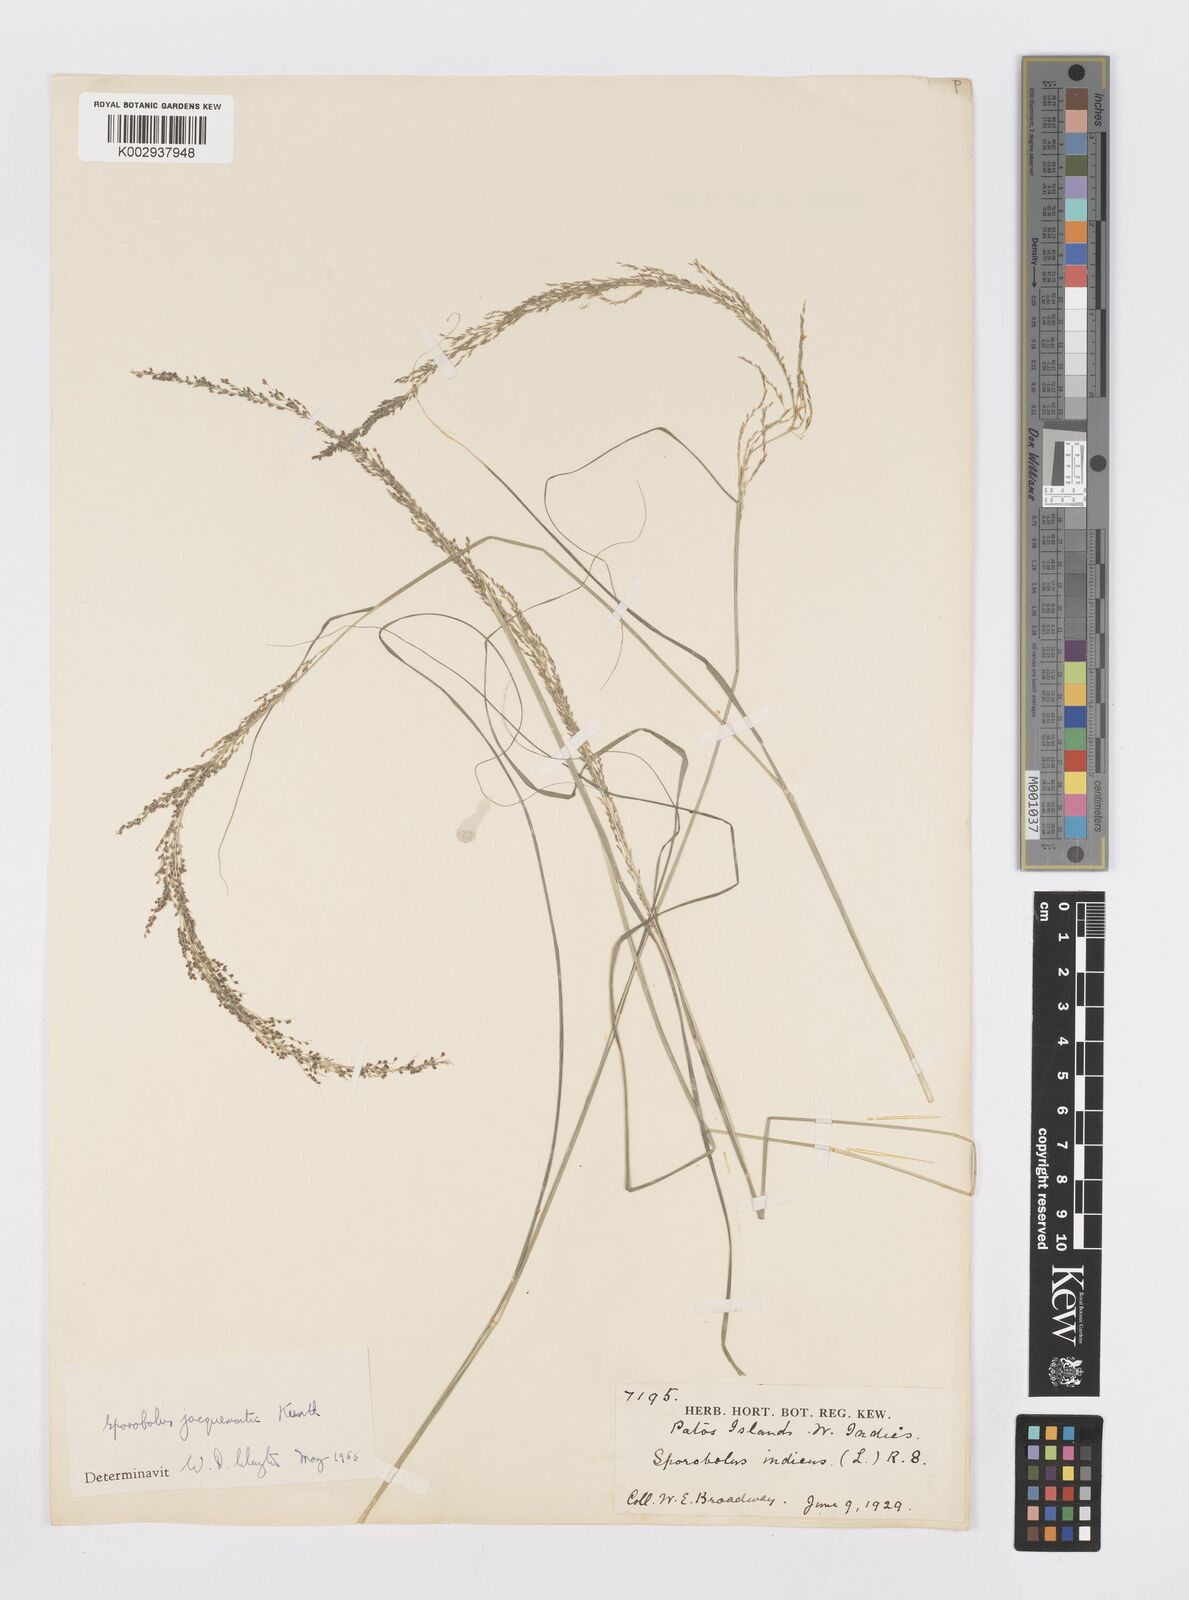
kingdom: Plantae
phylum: Tracheophyta
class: Liliopsida
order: Poales
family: Poaceae
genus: Sporobolus
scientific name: Sporobolus pyramidalis
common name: West indian dropseed
